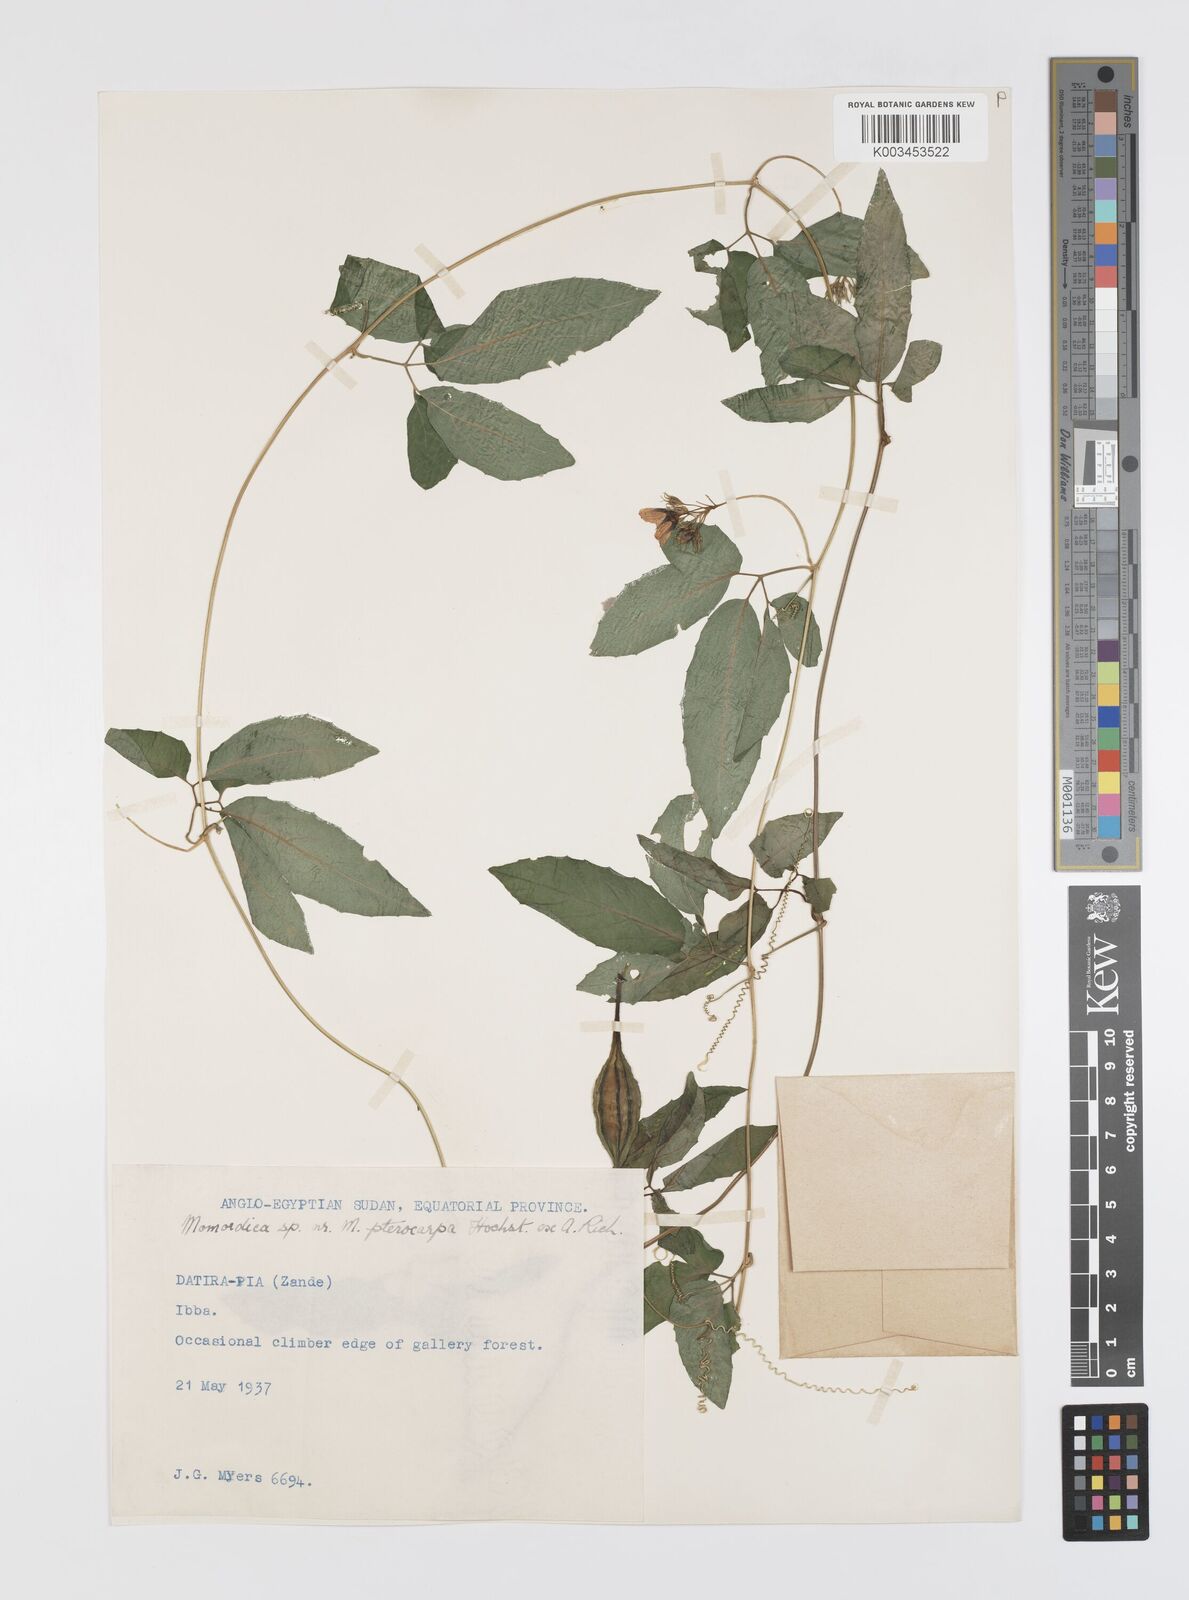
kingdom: Plantae
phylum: Tracheophyta
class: Magnoliopsida
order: Cucurbitales
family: Cucurbitaceae
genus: Momordica
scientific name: Momordica pterocarpa
